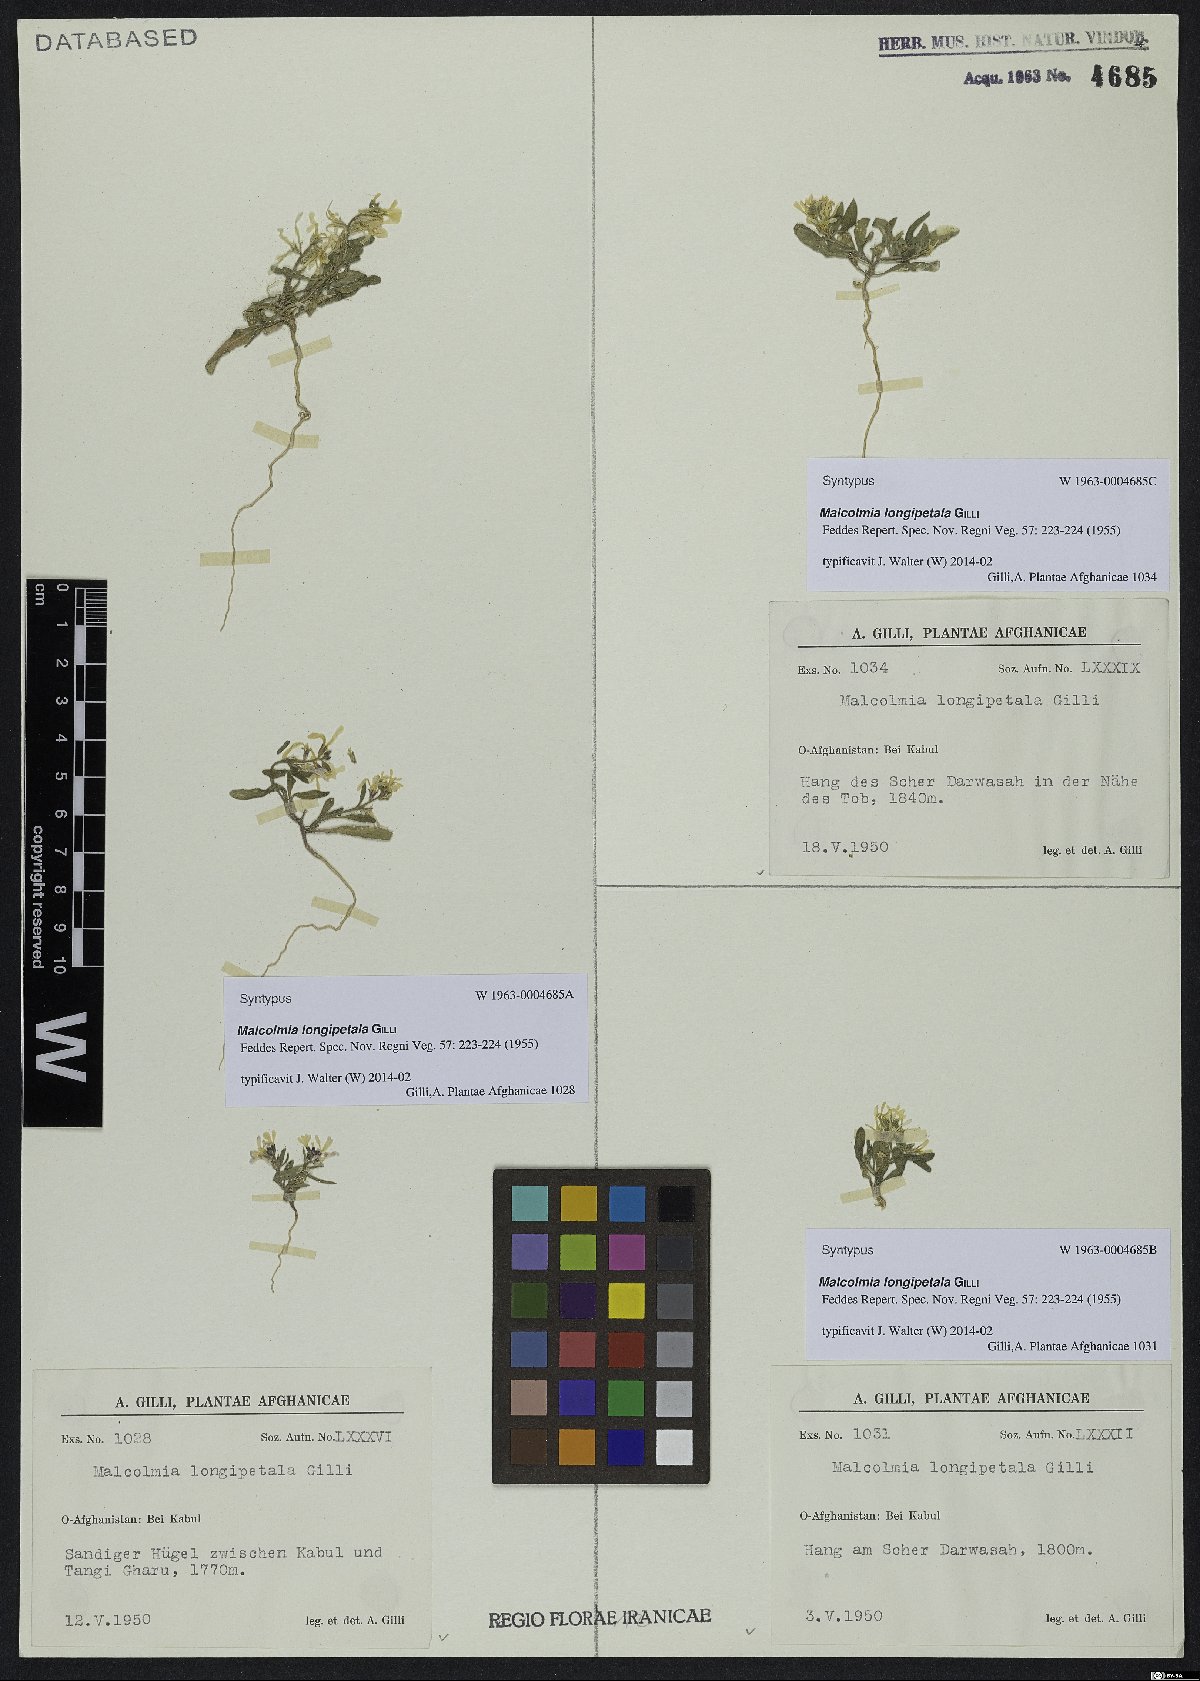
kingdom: Plantae
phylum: Tracheophyta
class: Magnoliopsida
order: Brassicales
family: Brassicaceae
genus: Strigosella
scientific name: Strigosella longipetala
